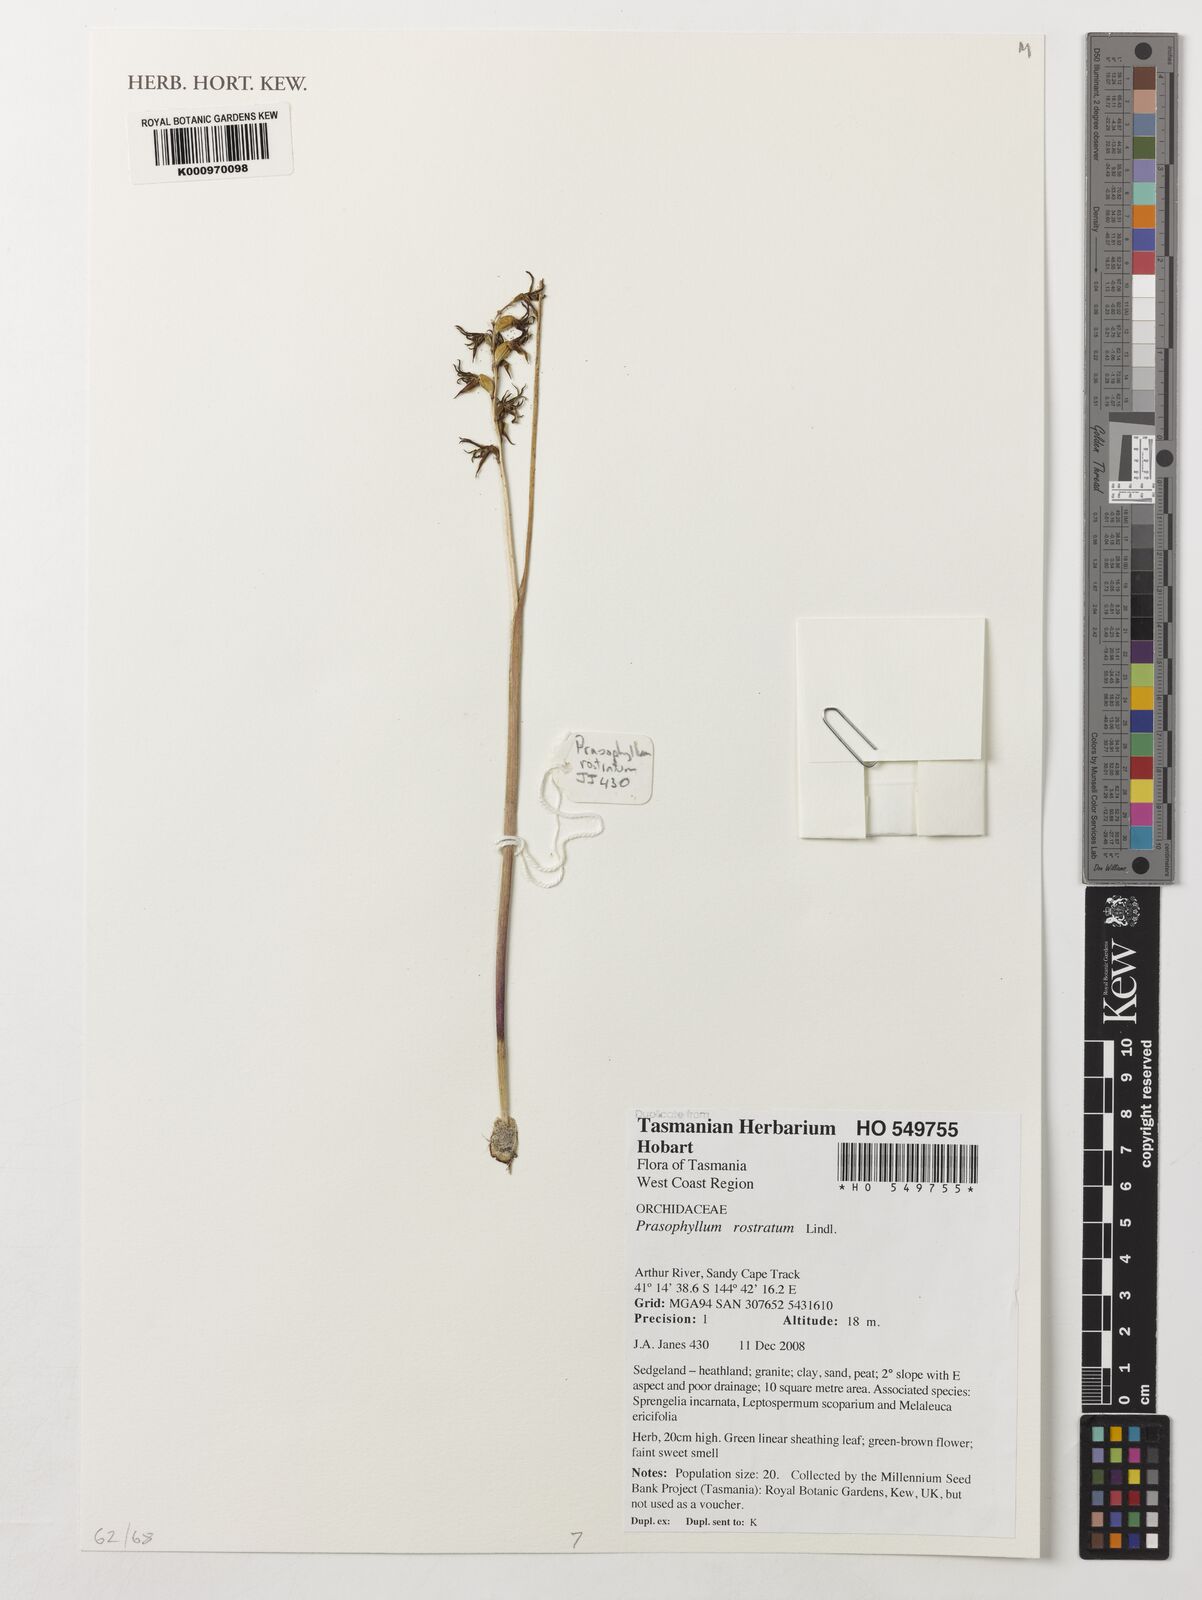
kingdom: Plantae
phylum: Tracheophyta
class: Liliopsida
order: Asparagales
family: Orchidaceae
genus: Prasophyllum
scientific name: Prasophyllum rostratum
